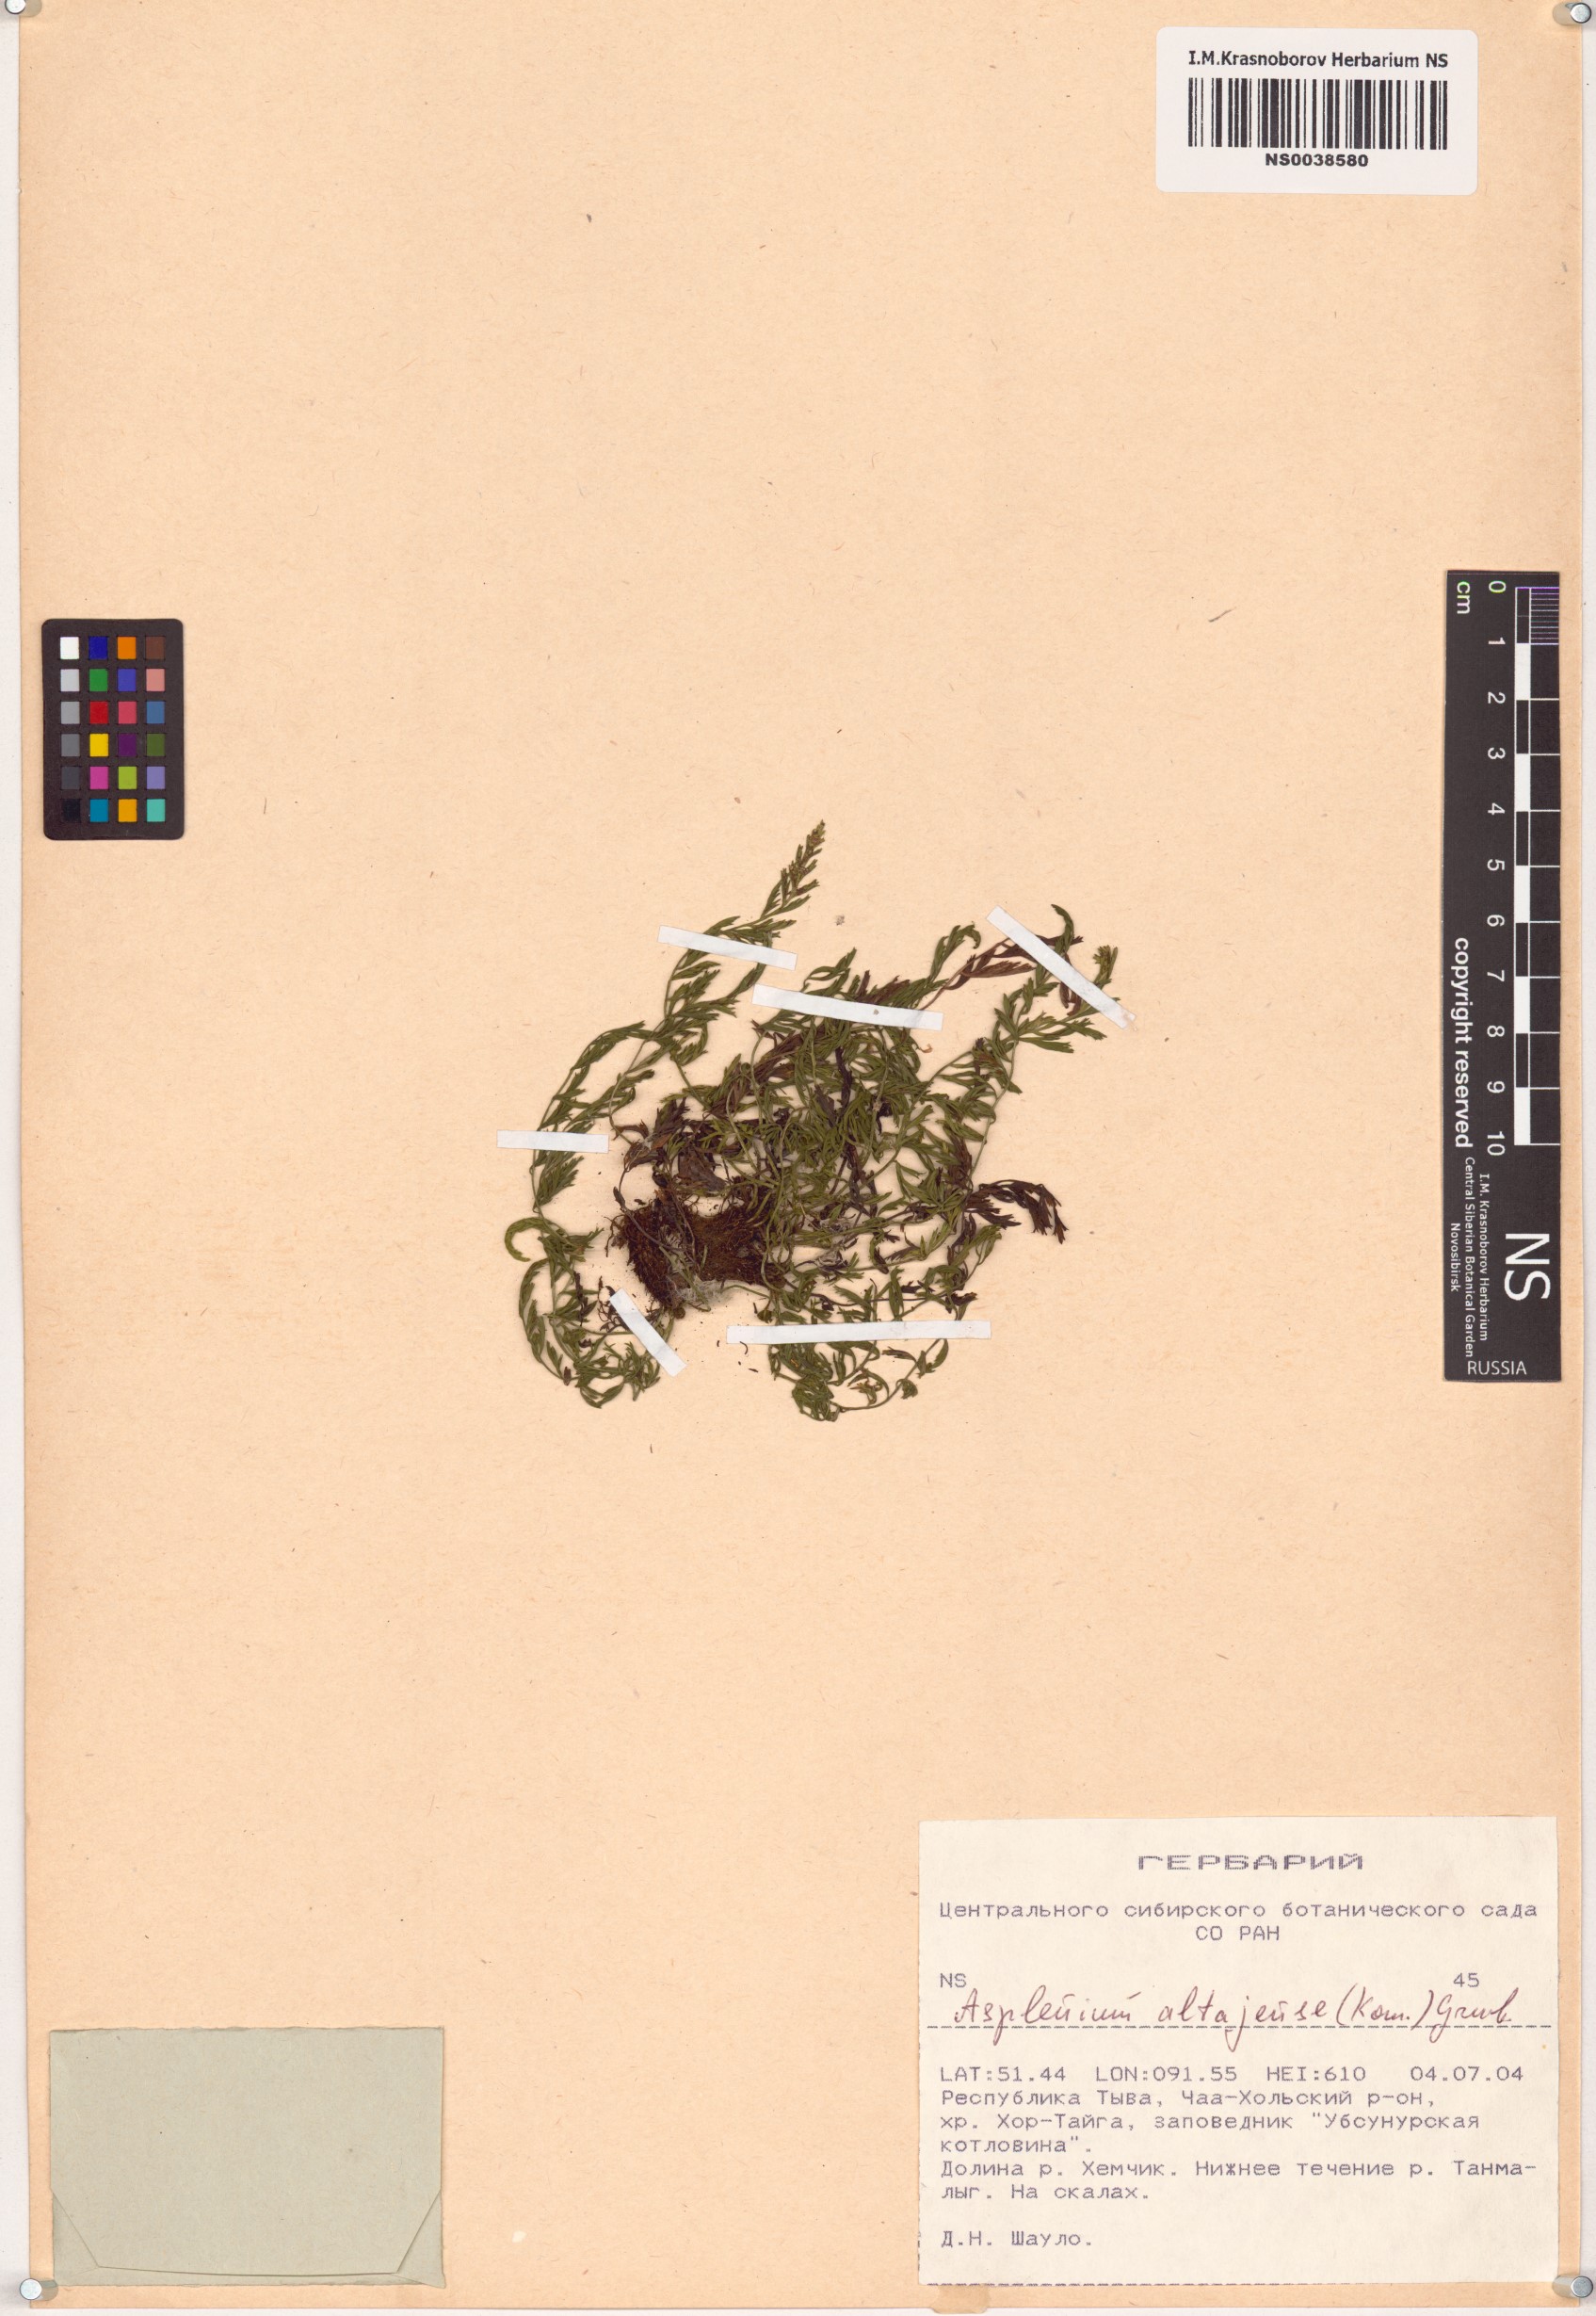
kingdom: Plantae
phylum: Tracheophyta
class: Polypodiopsida
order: Polypodiales
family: Aspleniaceae
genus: Asplenium
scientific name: Asplenium altajense
